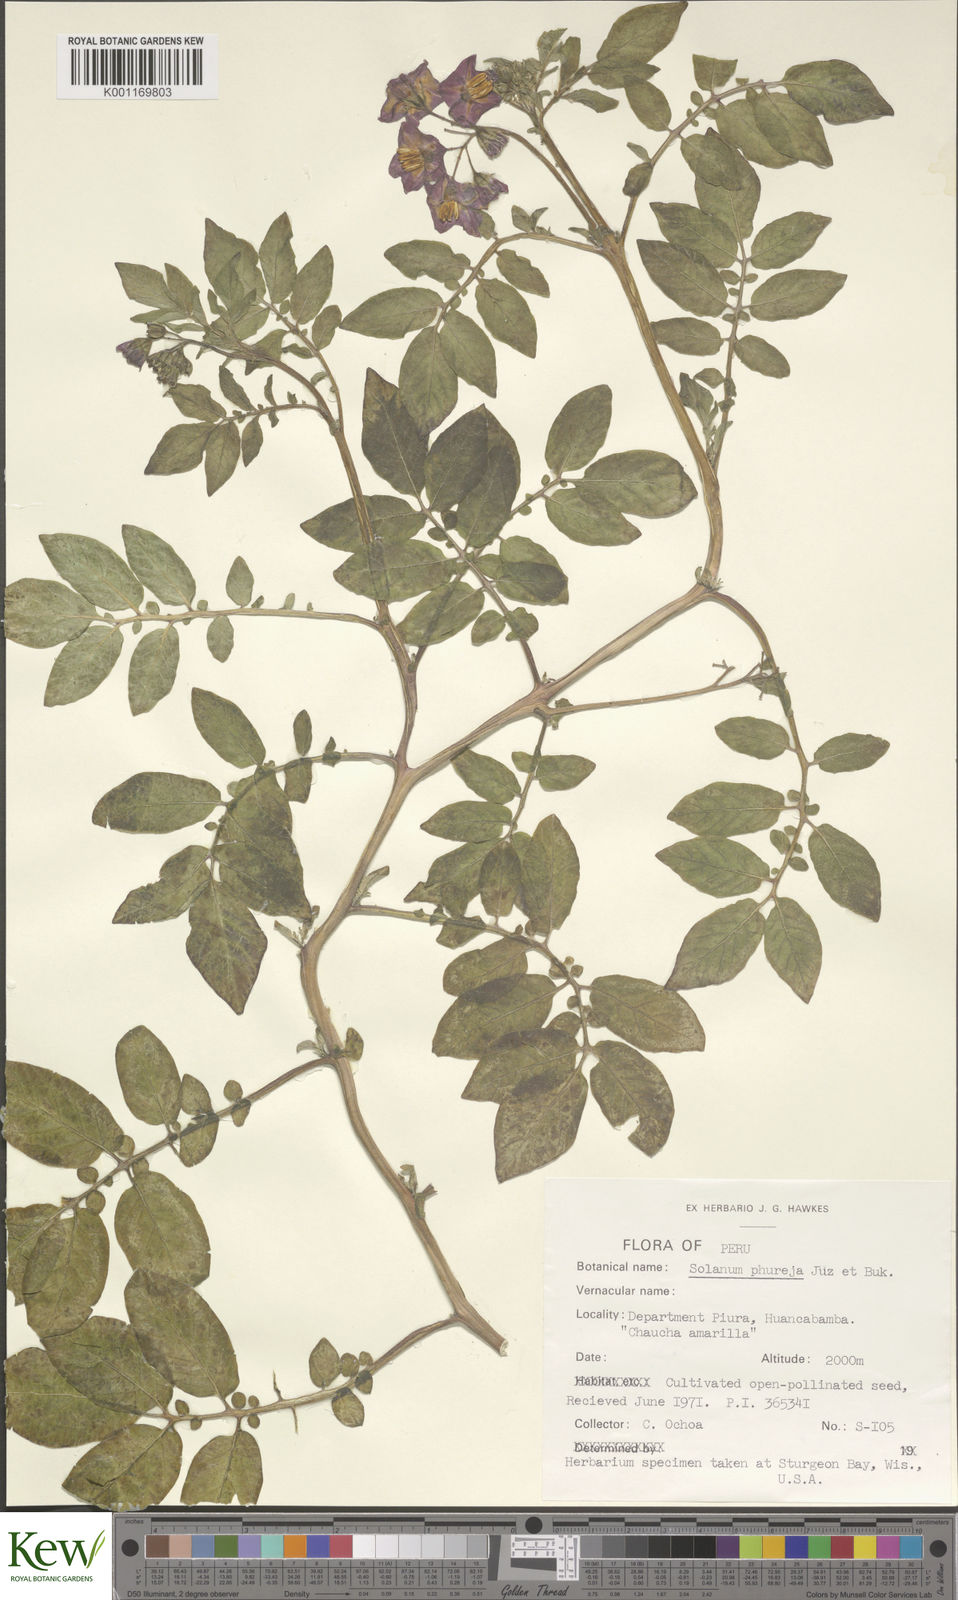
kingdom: Plantae
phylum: Tracheophyta
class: Magnoliopsida
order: Solanales
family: Solanaceae
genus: Solanum
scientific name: Solanum tuberosum
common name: Potato
